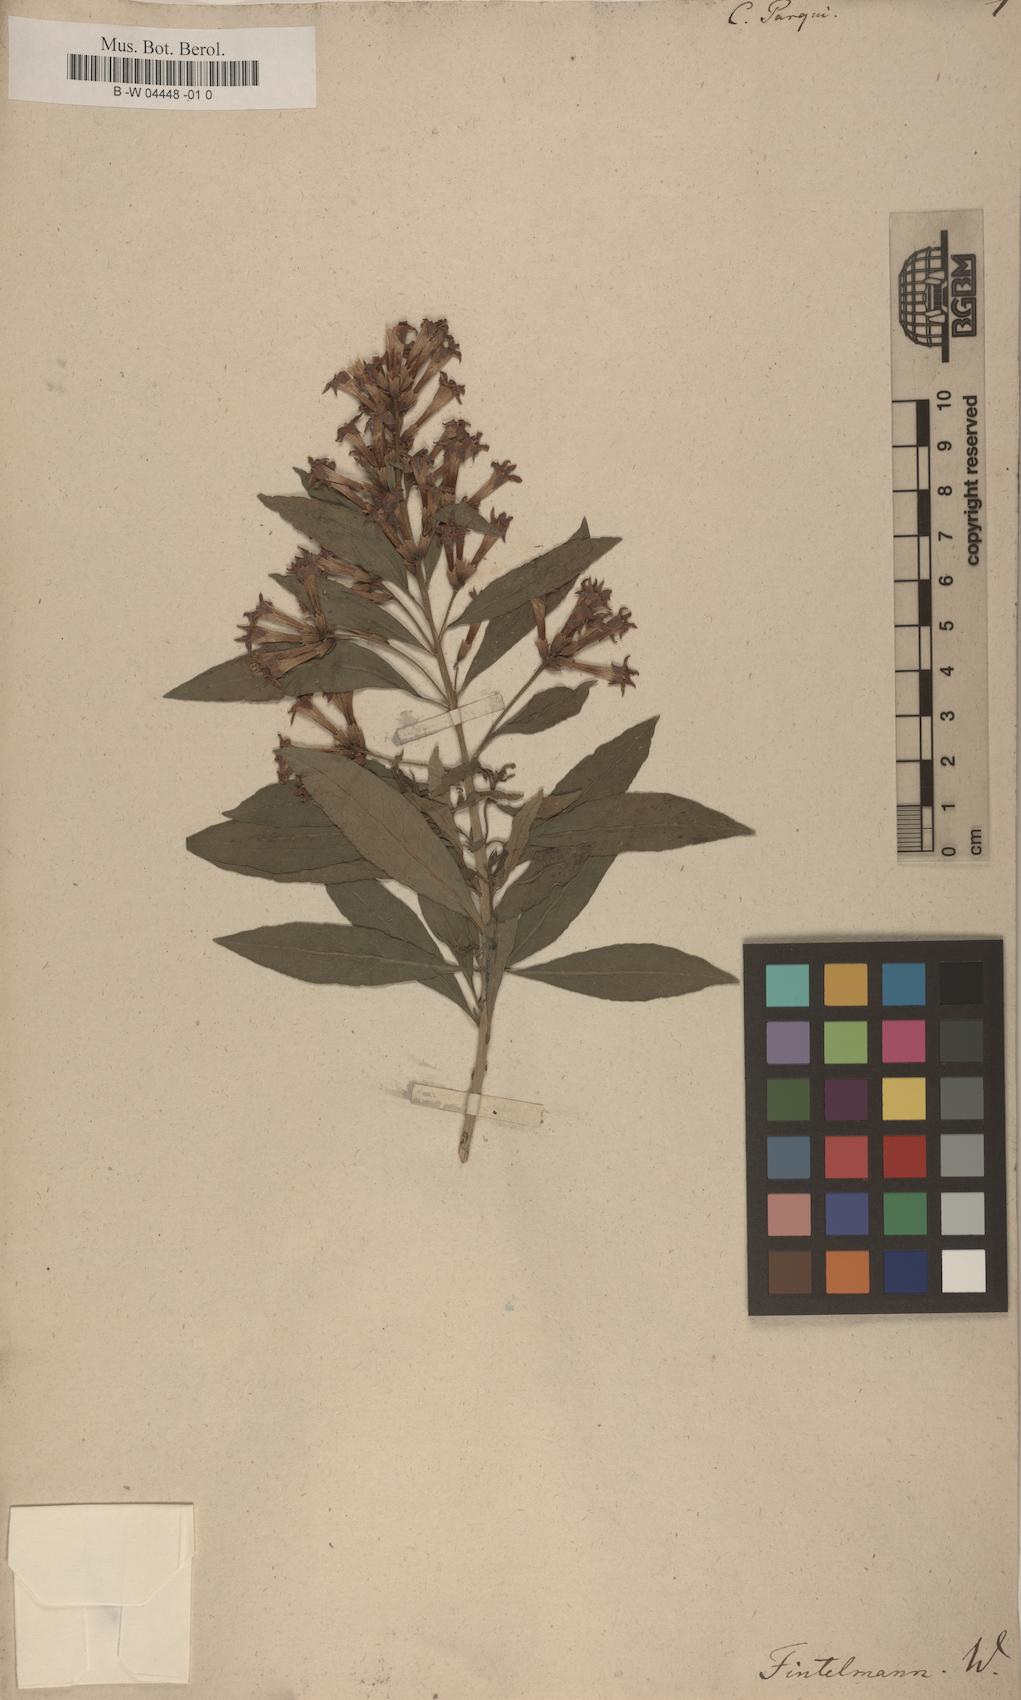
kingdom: Plantae
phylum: Tracheophyta
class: Magnoliopsida
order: Solanales
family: Solanaceae
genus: Cestrum
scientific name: Cestrum parqui
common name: Chilean cestrum
